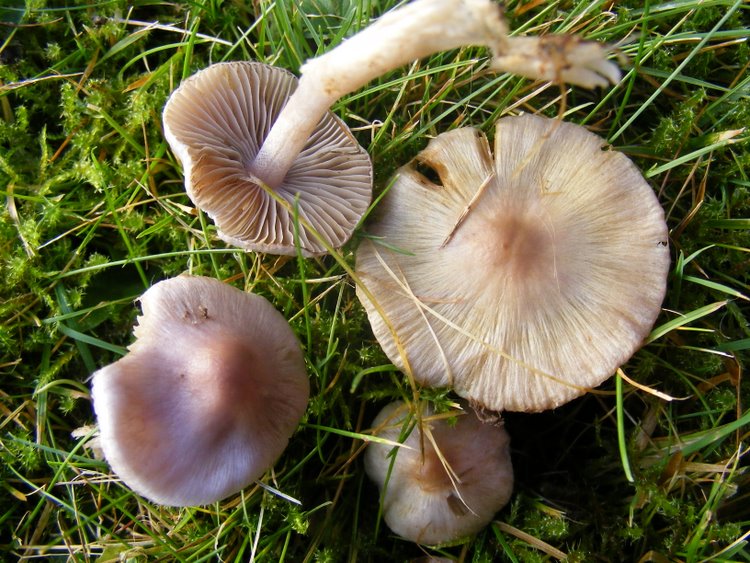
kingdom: Fungi
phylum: Basidiomycota
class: Agaricomycetes
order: Agaricales
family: Inocybaceae
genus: Inocybe
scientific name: Inocybe geophylla
